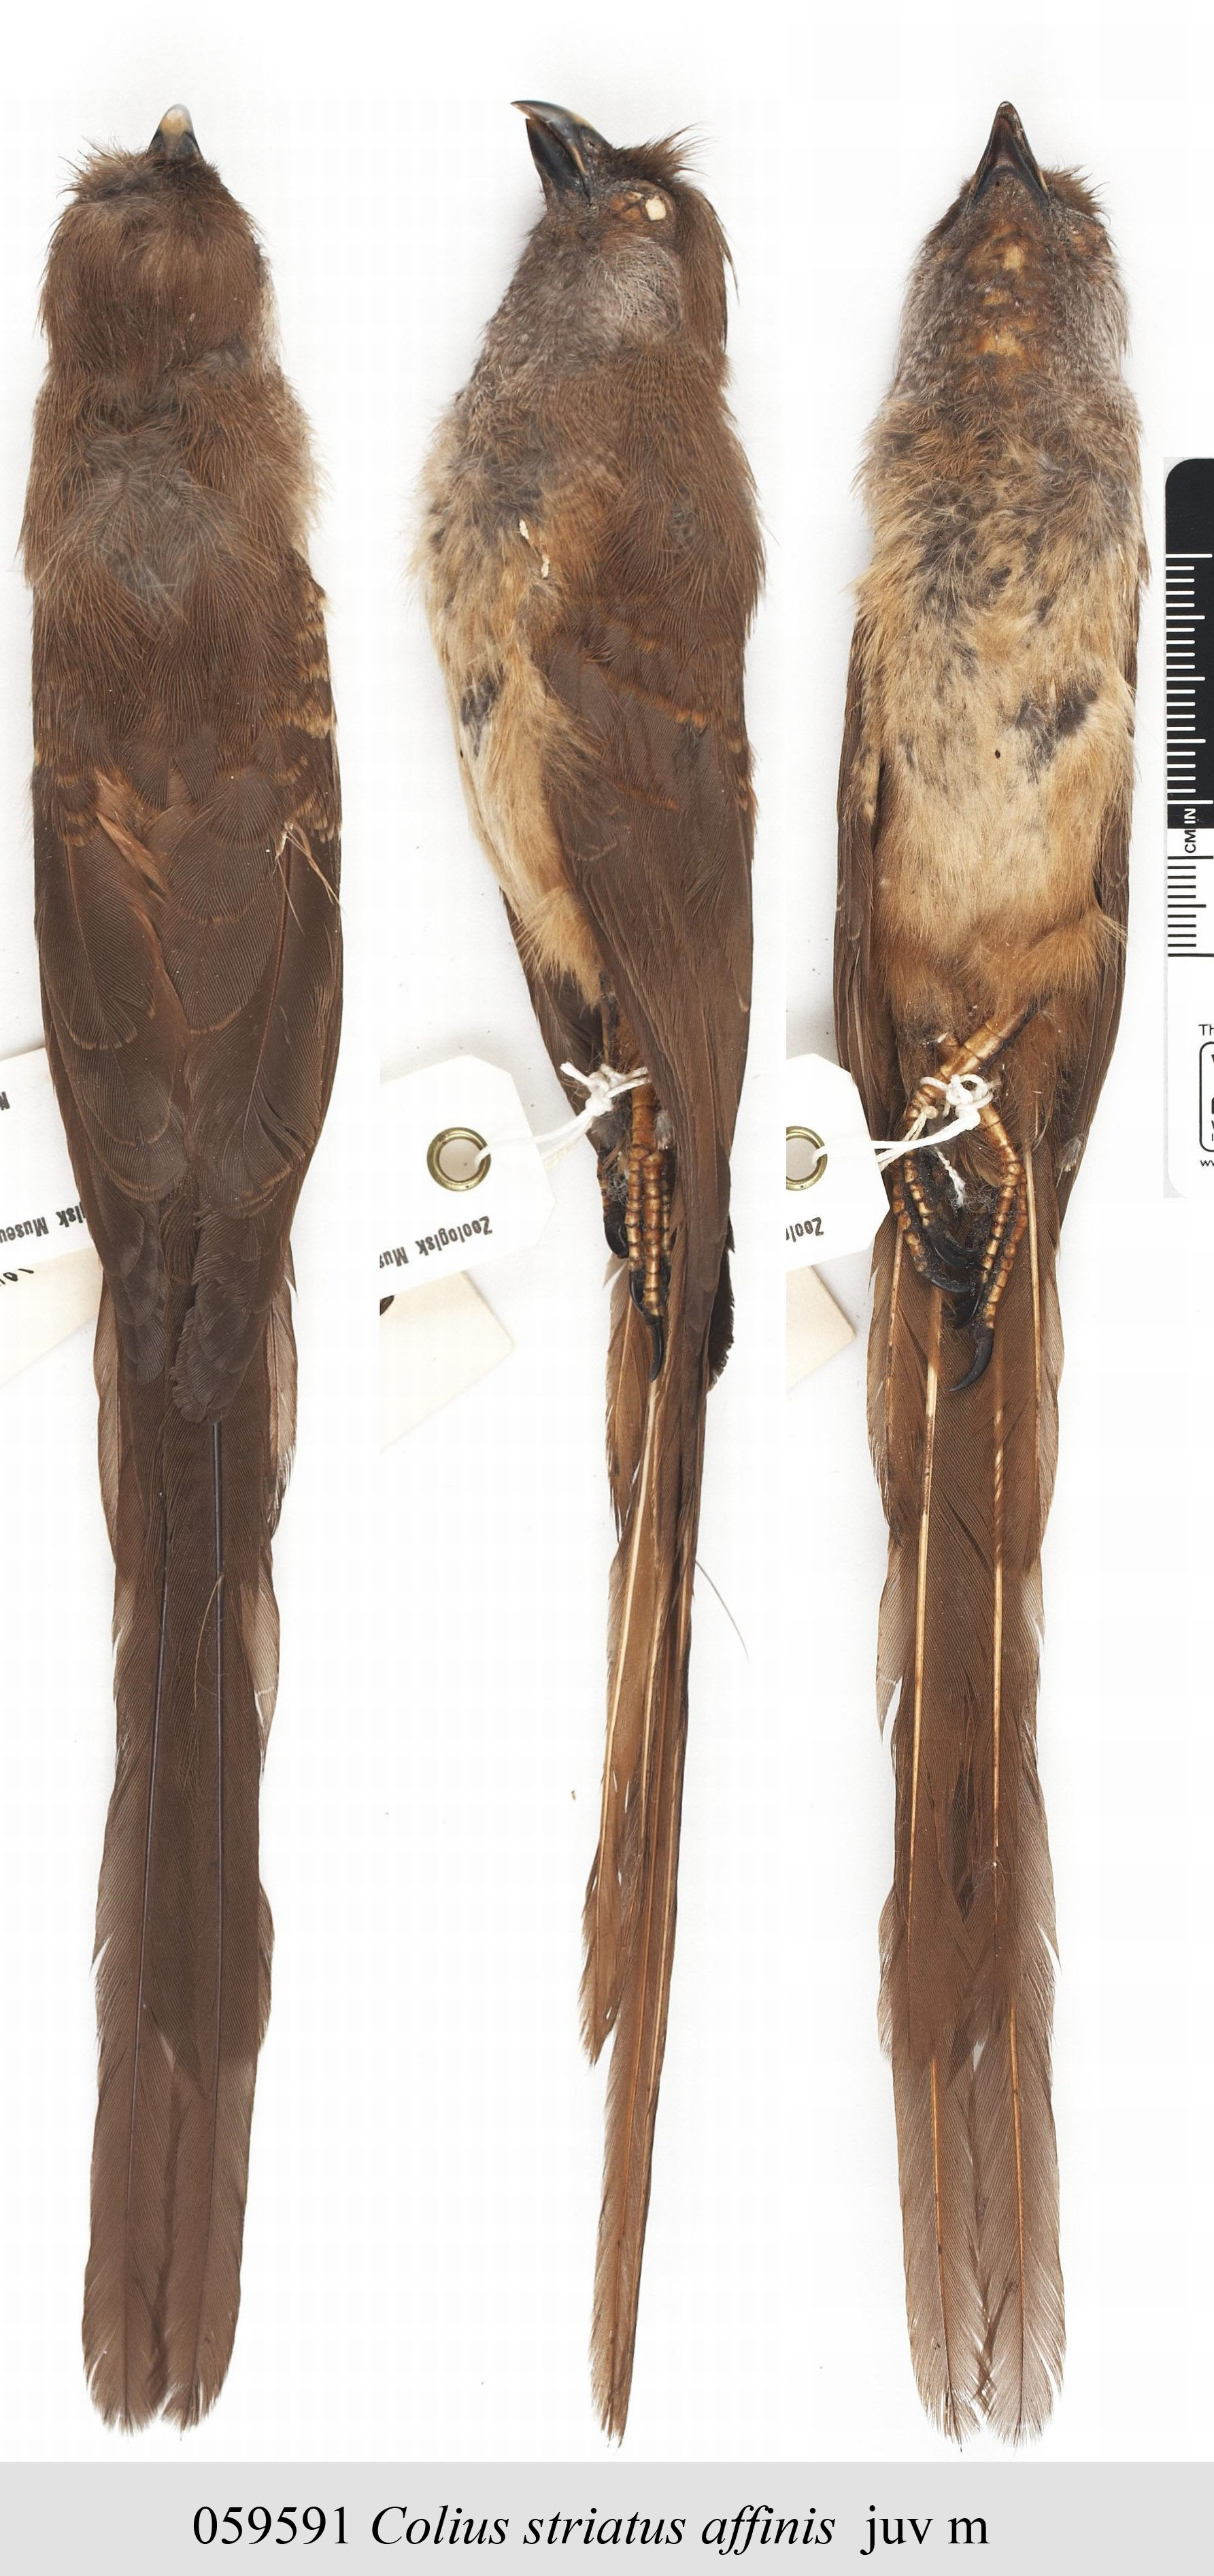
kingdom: Animalia
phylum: Chordata
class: Aves
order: Coliiformes
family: Coliidae
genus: Colius
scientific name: Colius striatus
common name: Speckled mousebird
